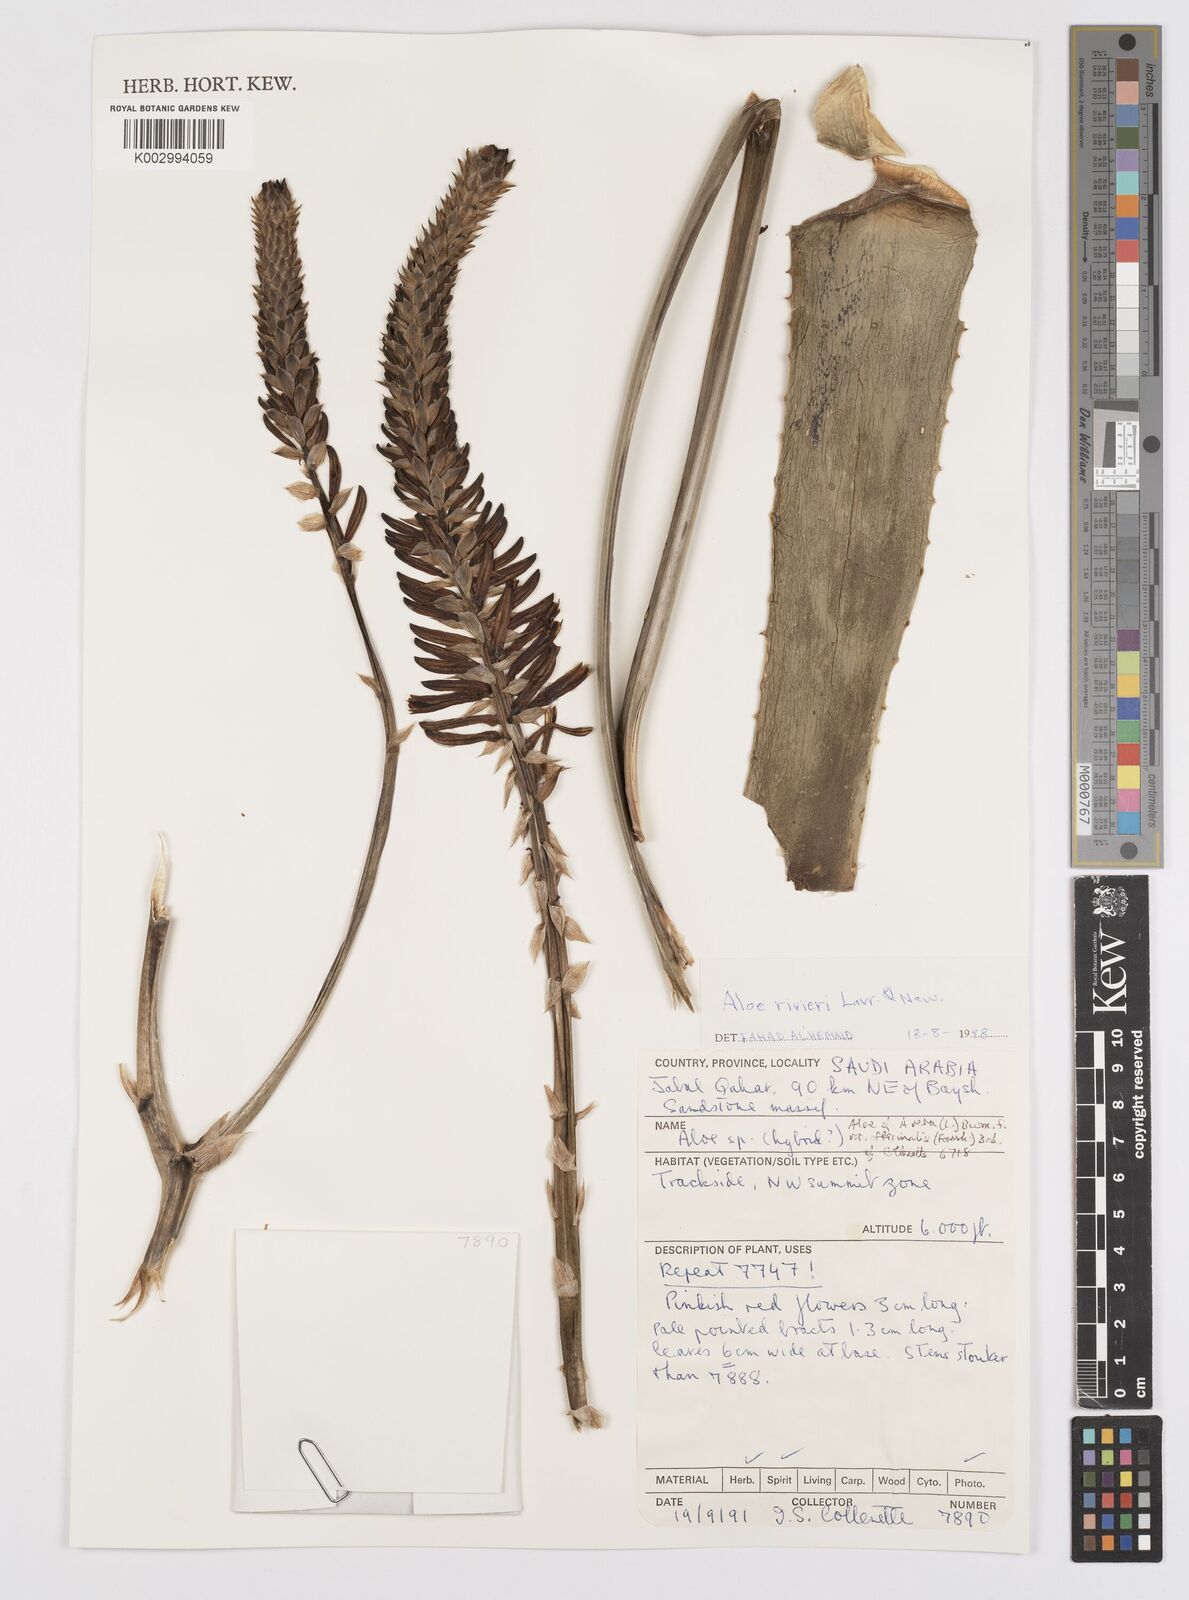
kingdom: Plantae
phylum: Tracheophyta
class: Liliopsida
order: Asparagales
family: Asphodelaceae
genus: Aloe
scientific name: Aloe rivierei
